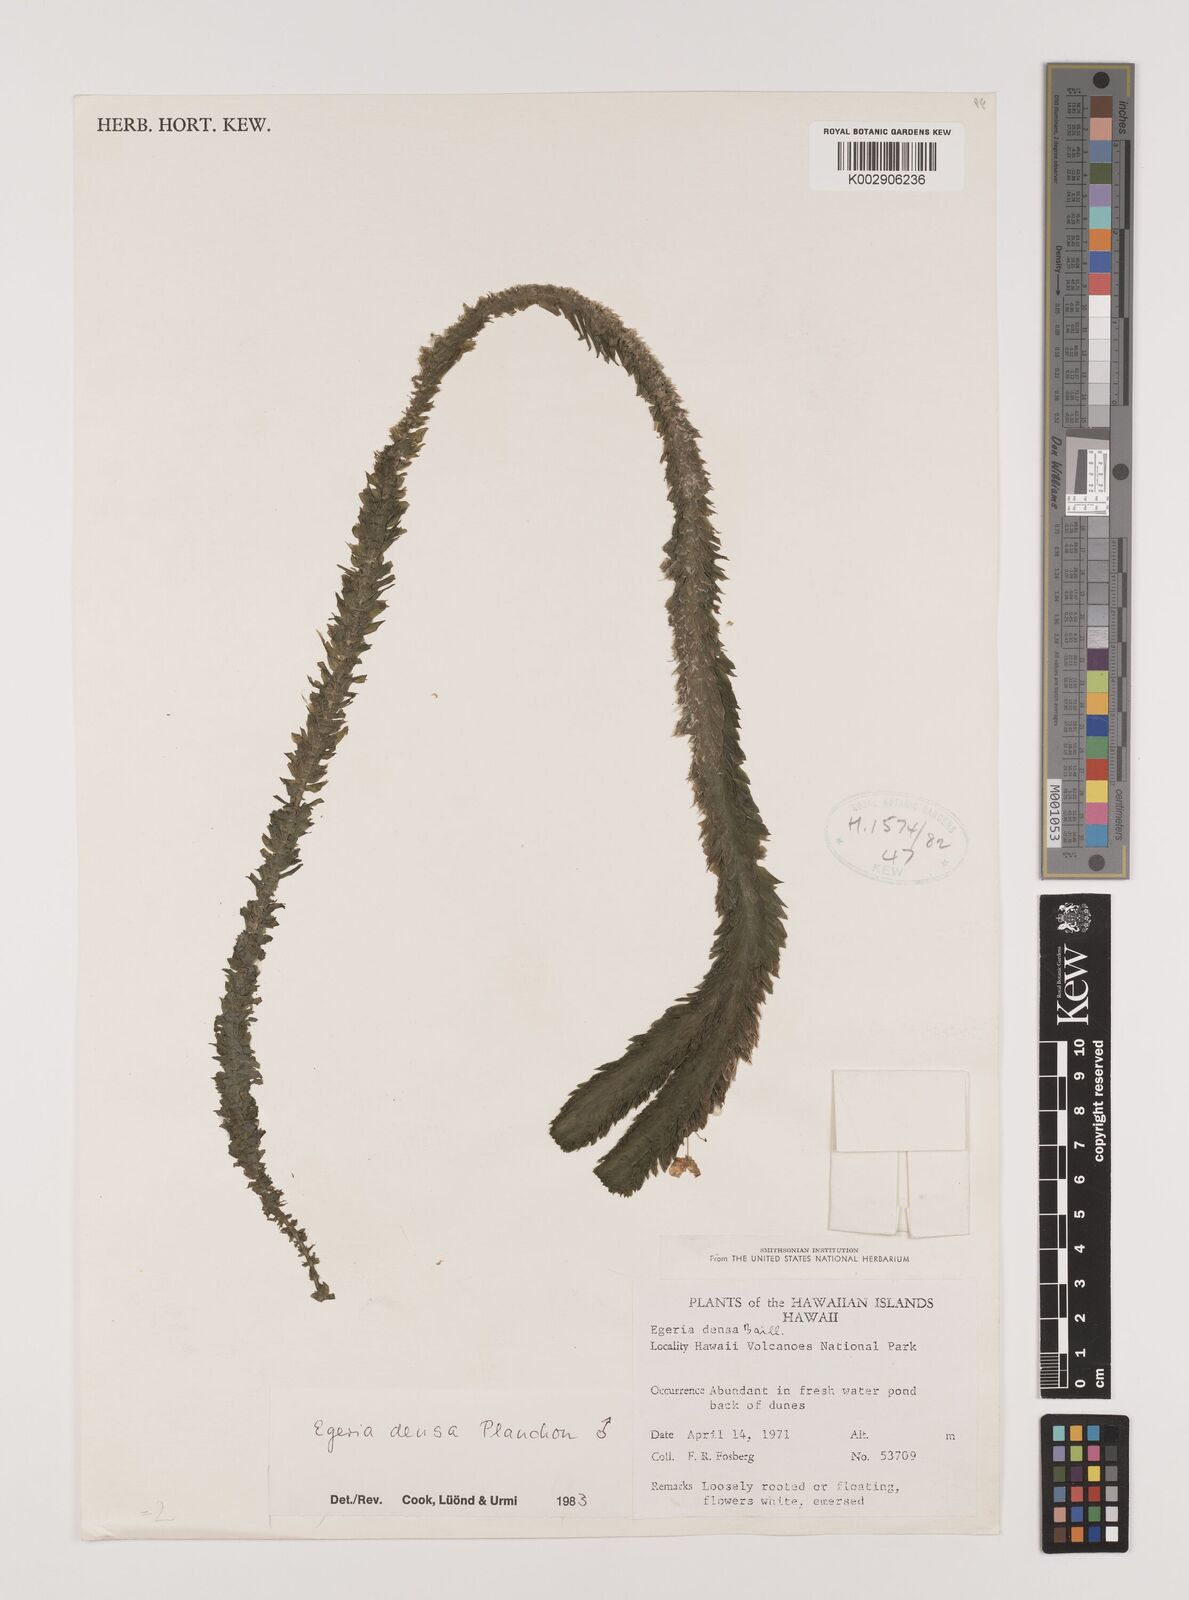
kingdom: Plantae
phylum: Tracheophyta
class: Liliopsida
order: Alismatales
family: Hydrocharitaceae
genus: Elodea
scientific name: Elodea densa
